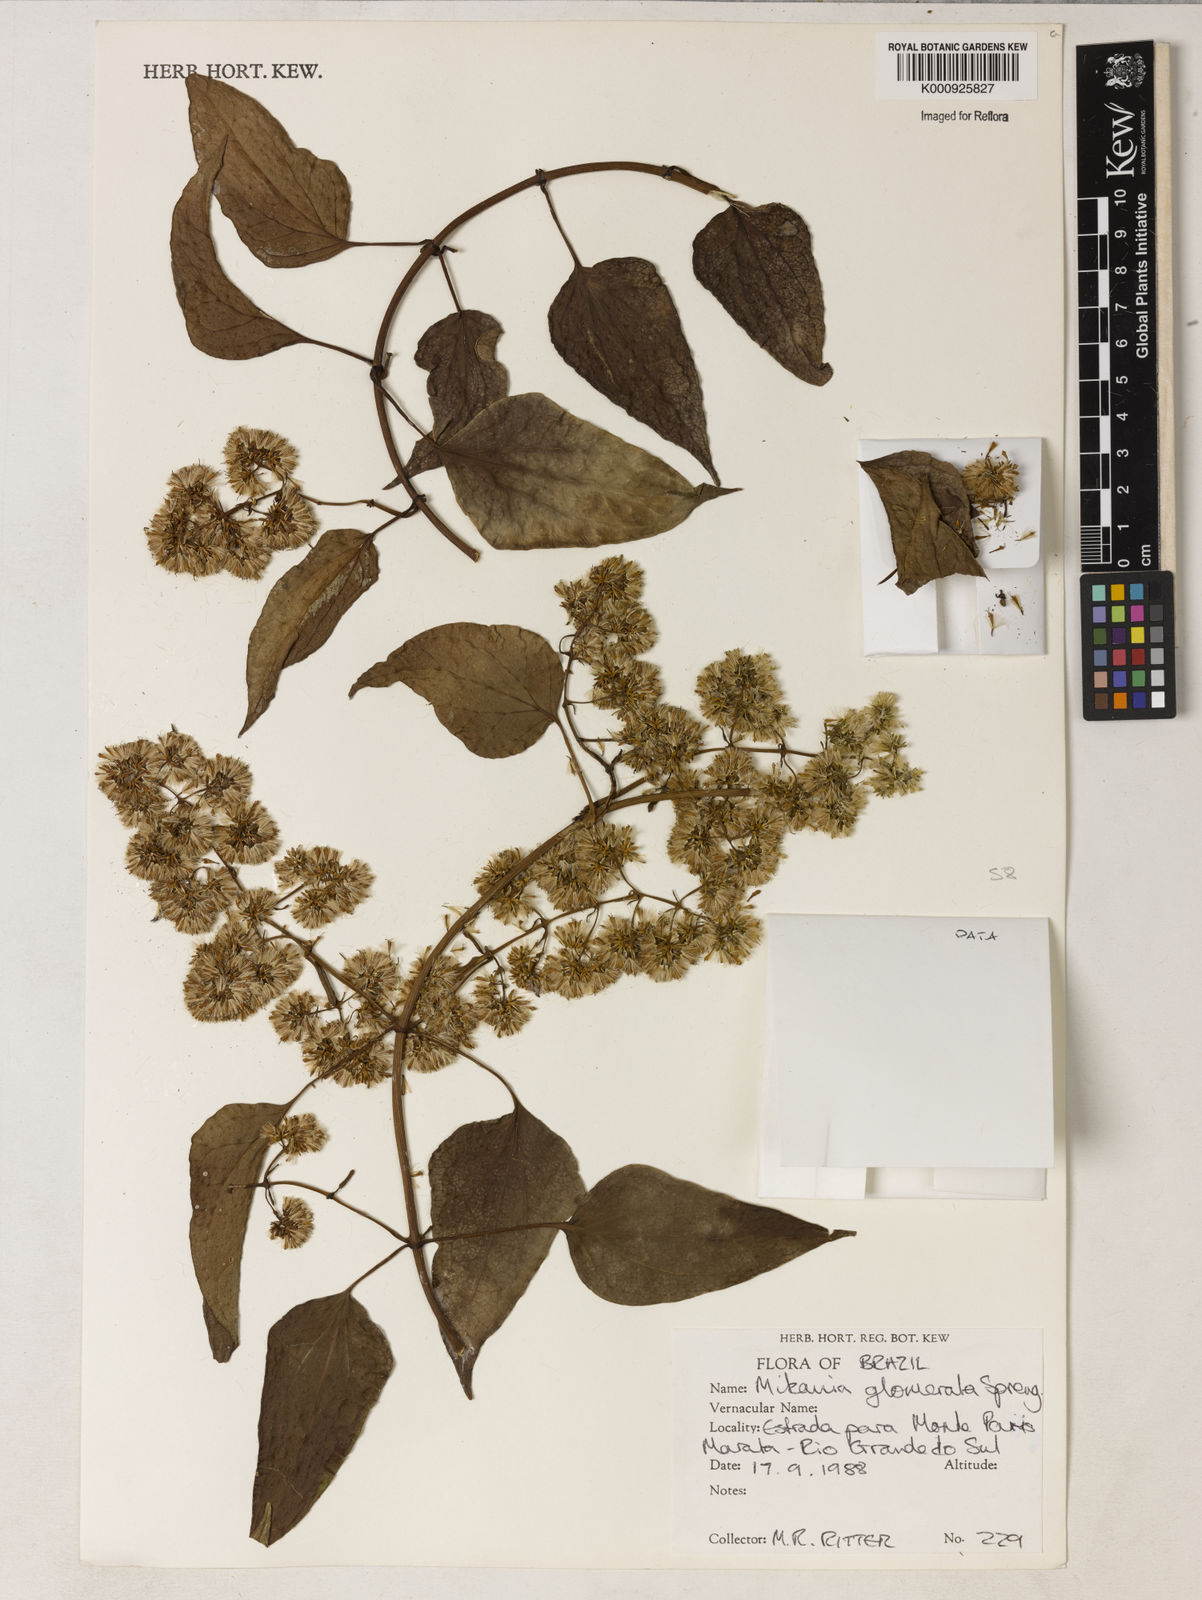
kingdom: Plantae
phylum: Tracheophyta
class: Magnoliopsida
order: Asterales
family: Asteraceae
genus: Mikania
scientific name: Mikania glomerata
